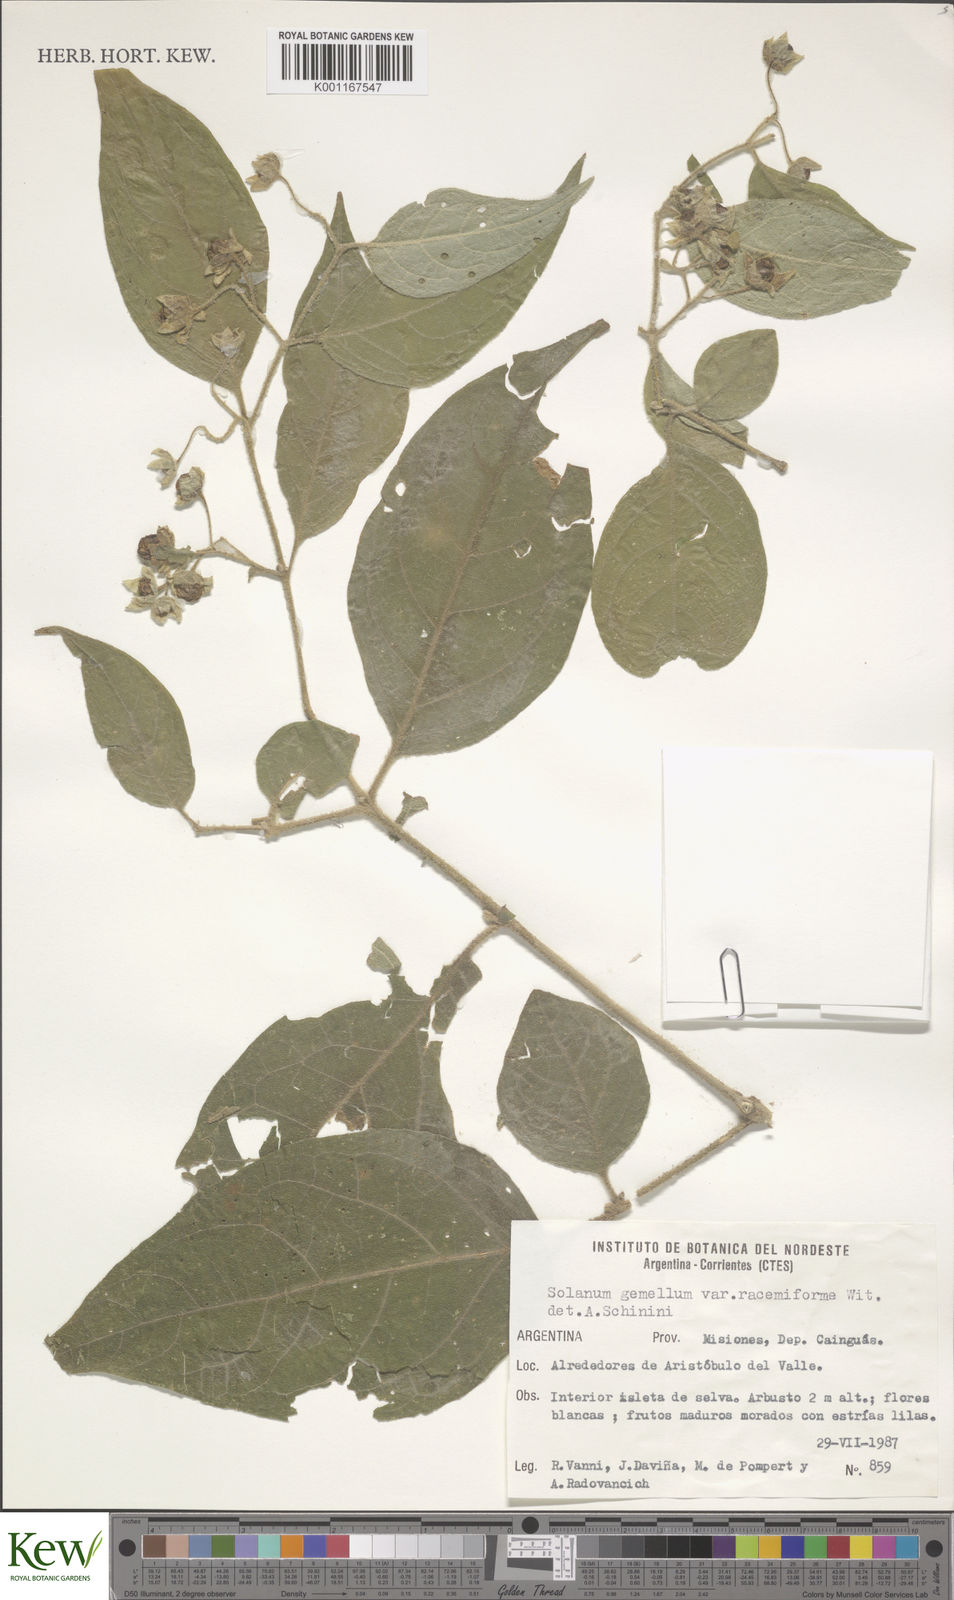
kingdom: Plantae
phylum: Tracheophyta
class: Magnoliopsida
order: Solanales
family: Solanaceae
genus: Solanum
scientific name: Solanum tweedieanum
